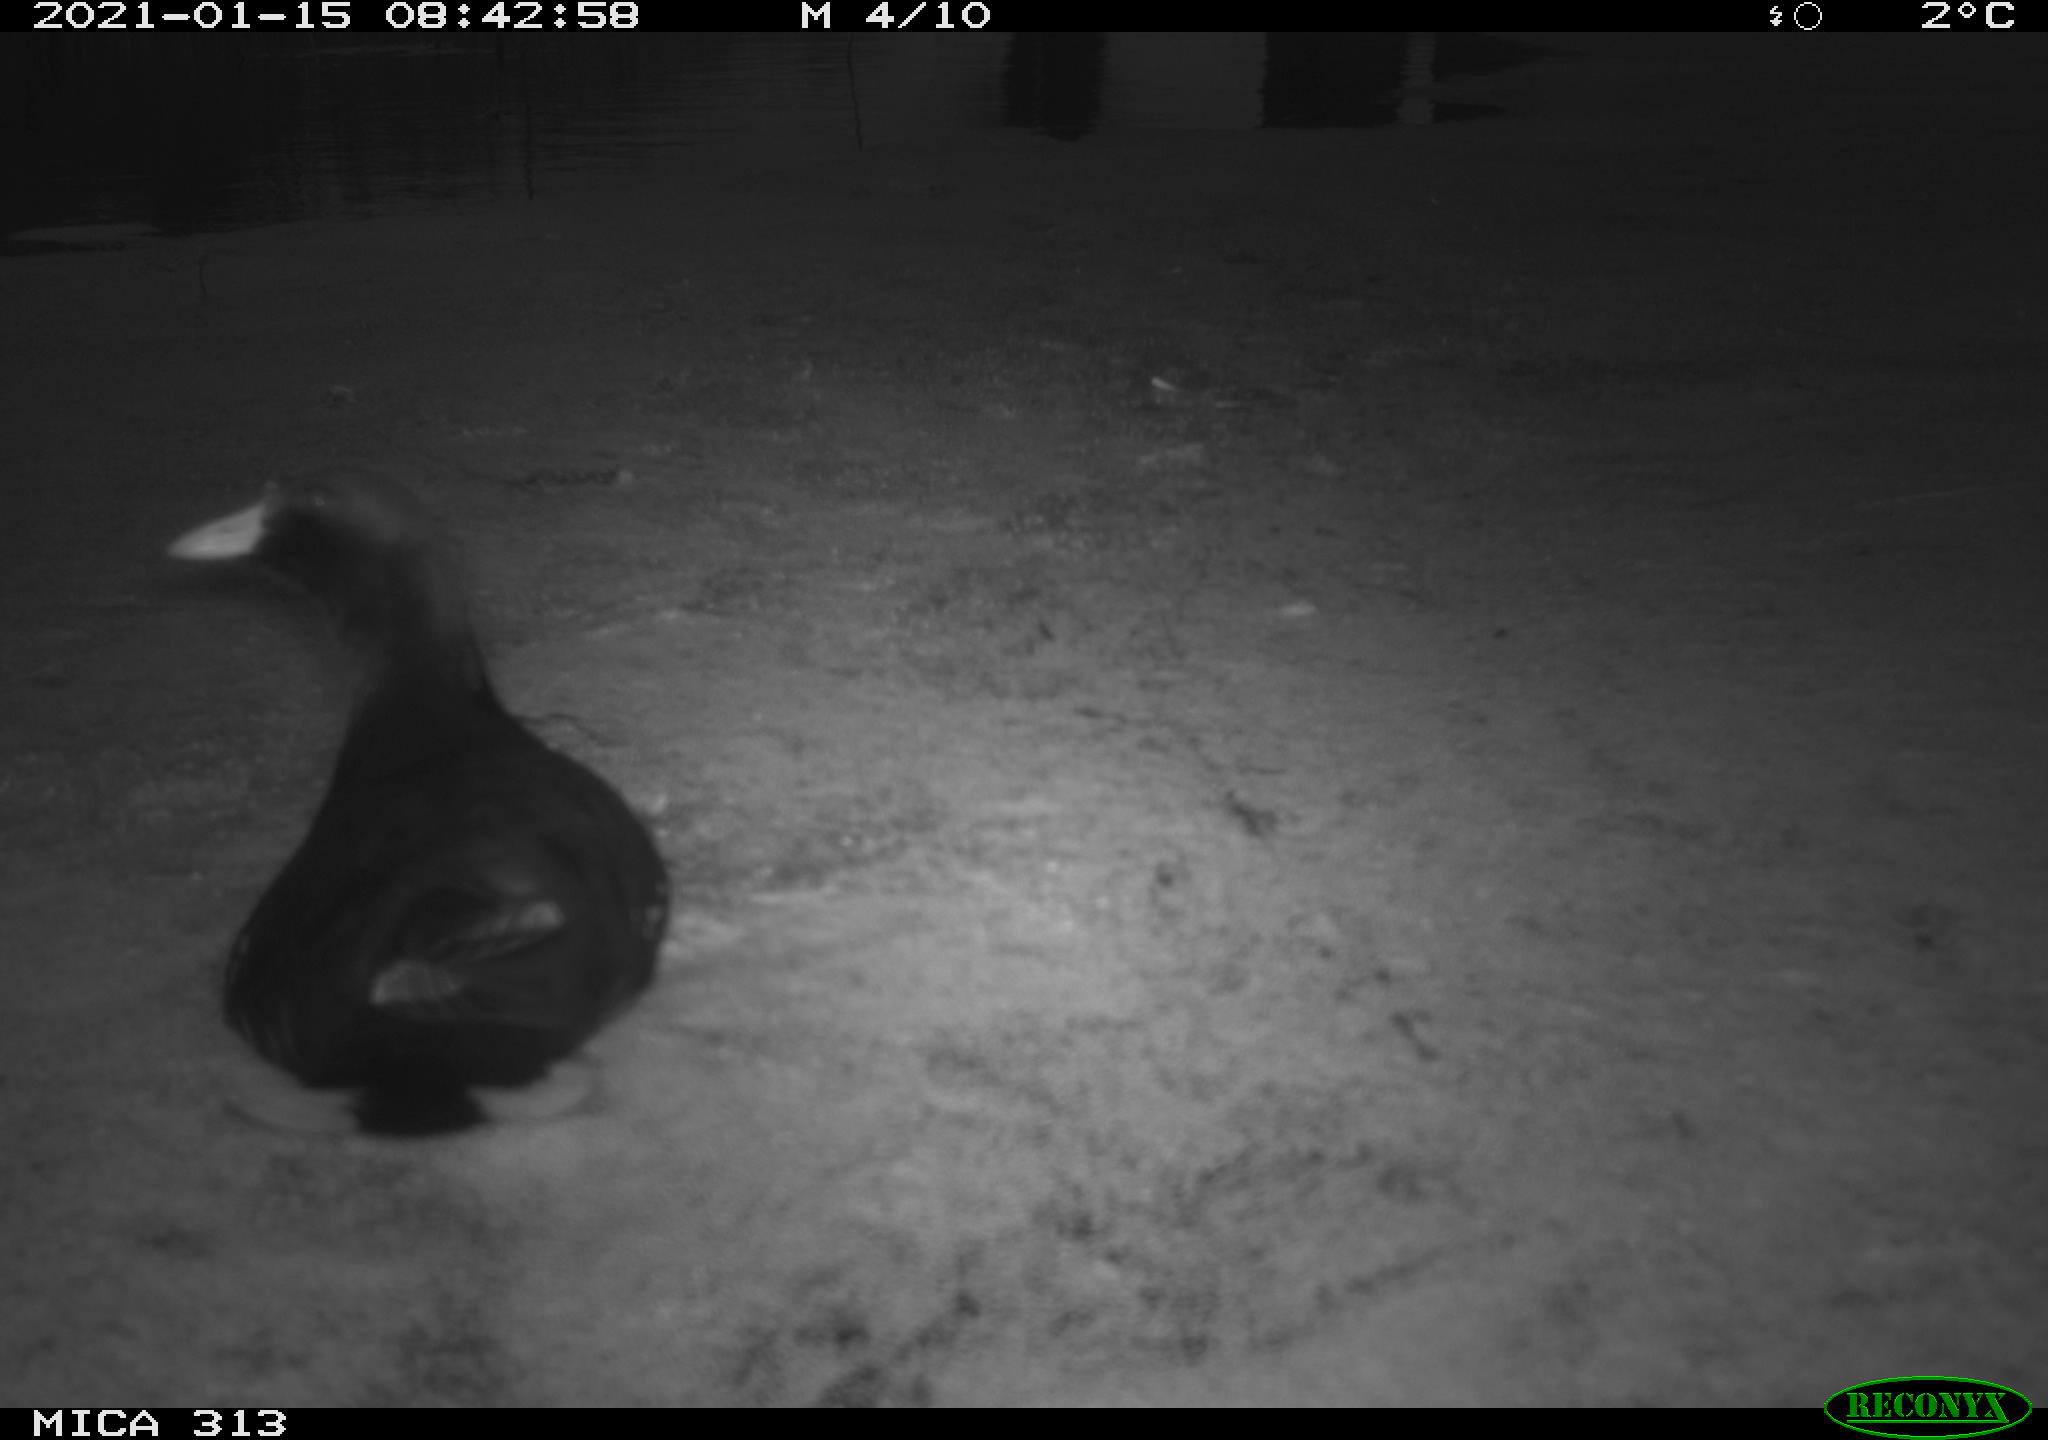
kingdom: Animalia
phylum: Chordata
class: Aves
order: Gruiformes
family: Rallidae
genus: Gallinula
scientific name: Gallinula chloropus
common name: Common moorhen
